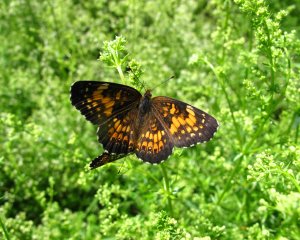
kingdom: Animalia
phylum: Arthropoda
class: Insecta
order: Lepidoptera
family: Nymphalidae
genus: Chlosyne
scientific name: Chlosyne harrisii
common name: Harris's Checkerspot
